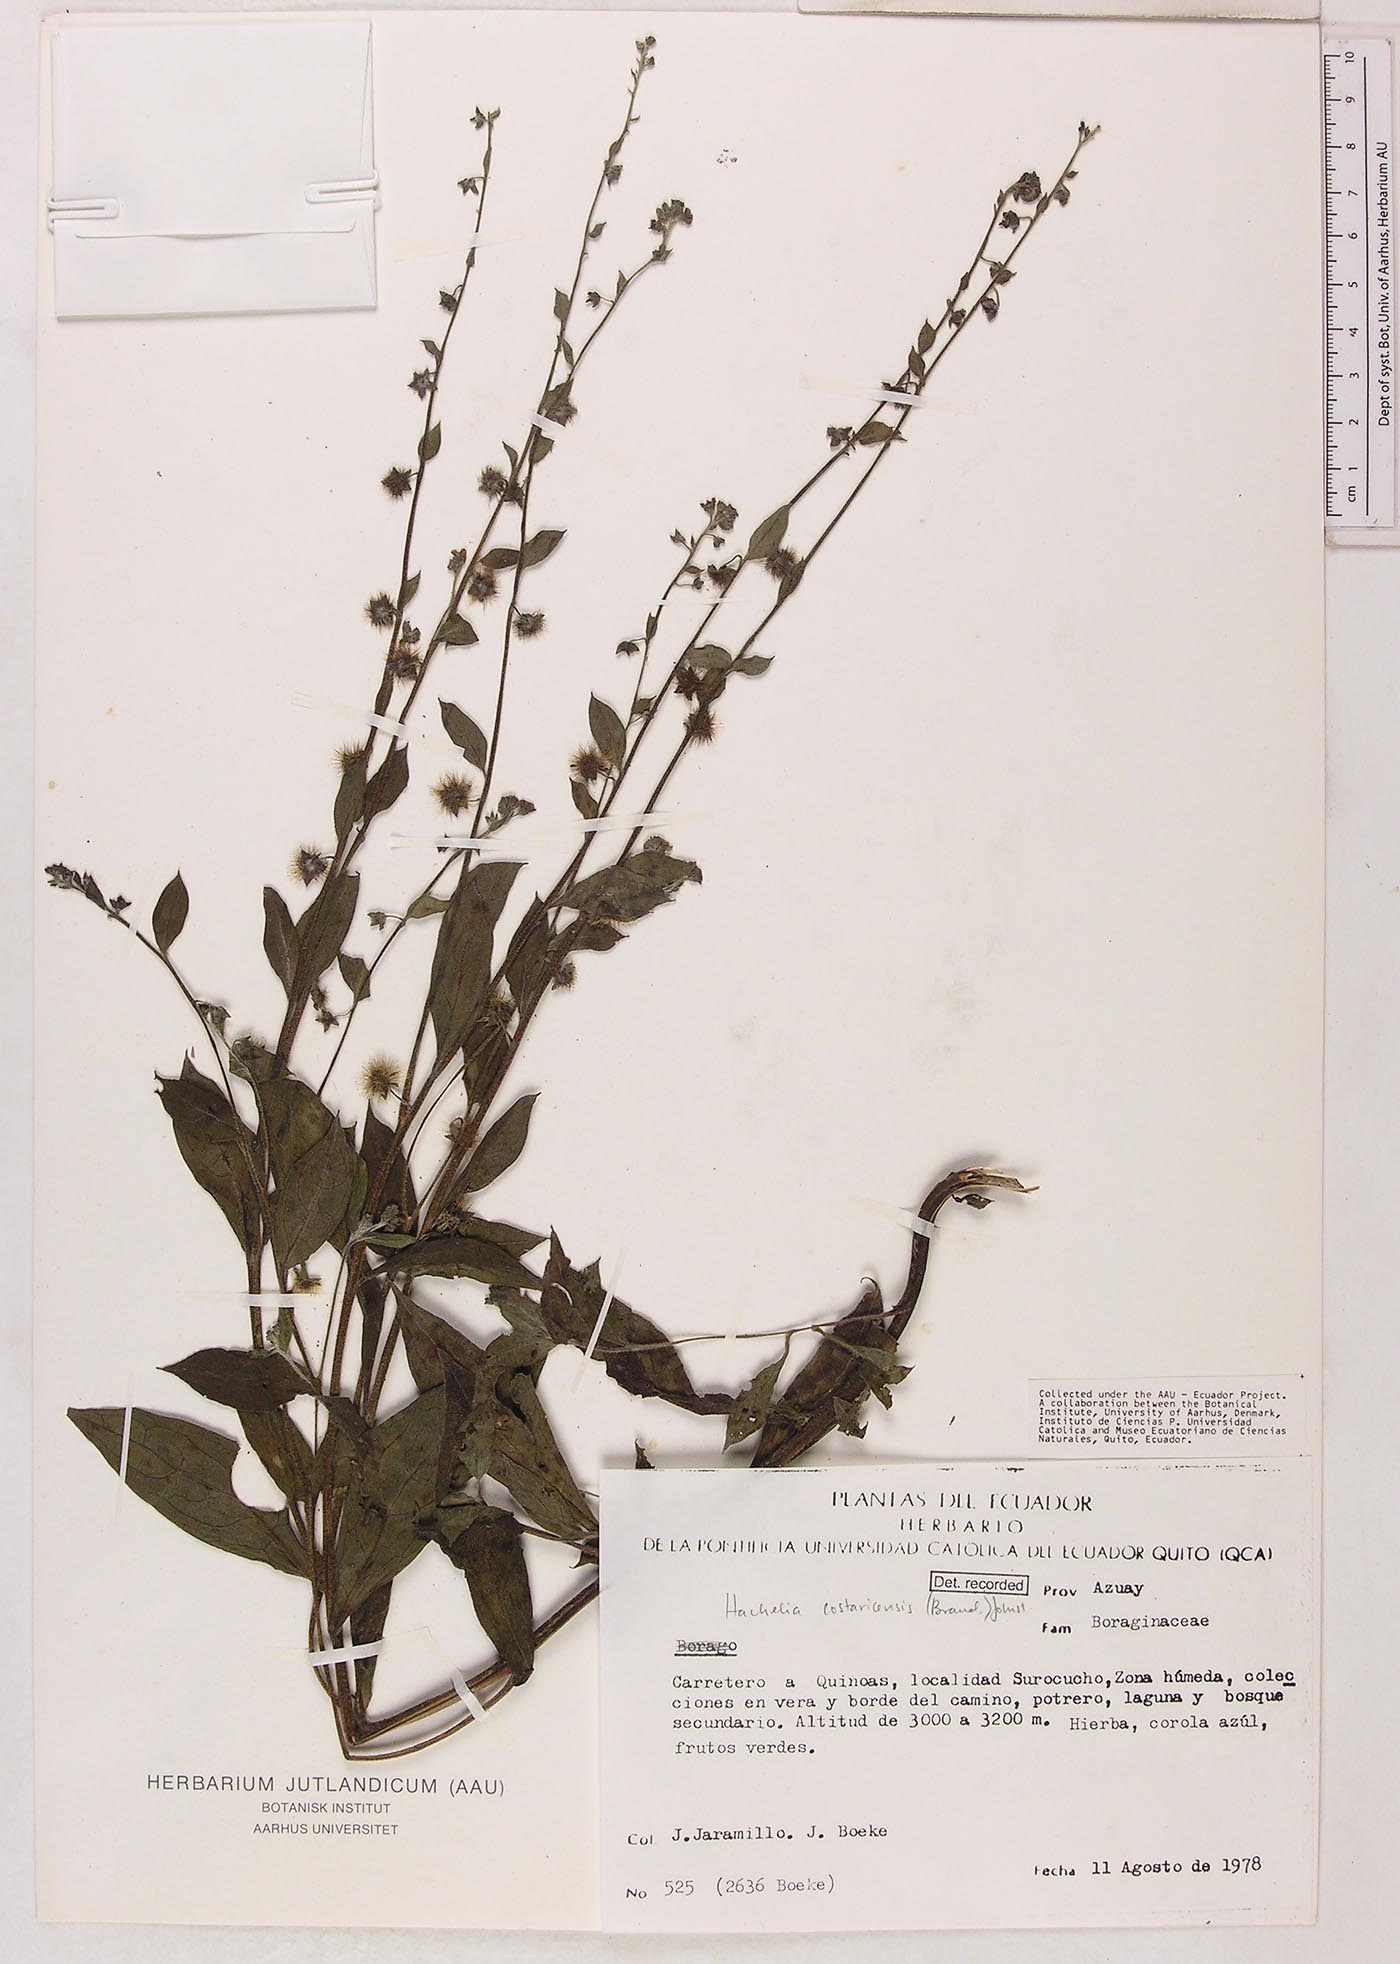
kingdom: Plantae
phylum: Tracheophyta
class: Magnoliopsida
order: Boraginales
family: Boraginaceae
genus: Hackelia
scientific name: Hackelia revoluta
